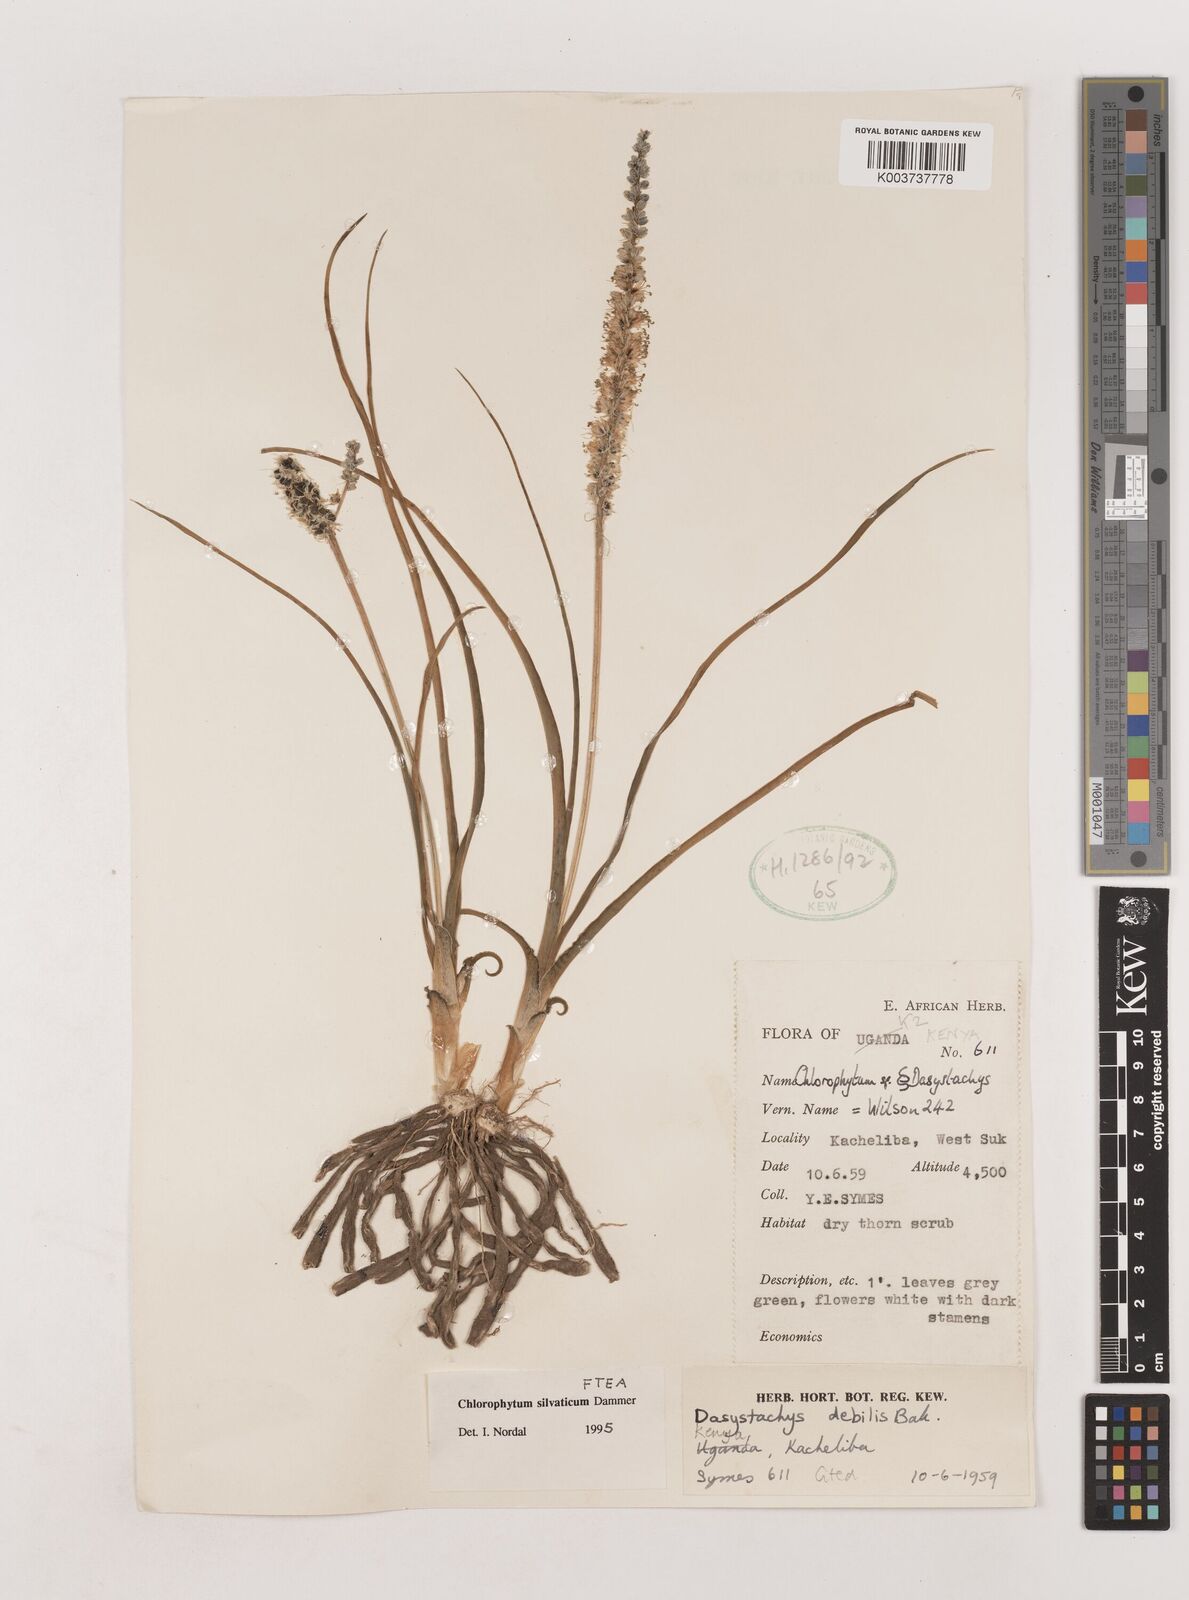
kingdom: Plantae
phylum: Tracheophyta
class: Liliopsida
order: Asparagales
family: Asparagaceae
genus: Chlorophytum
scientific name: Chlorophytum africanum
